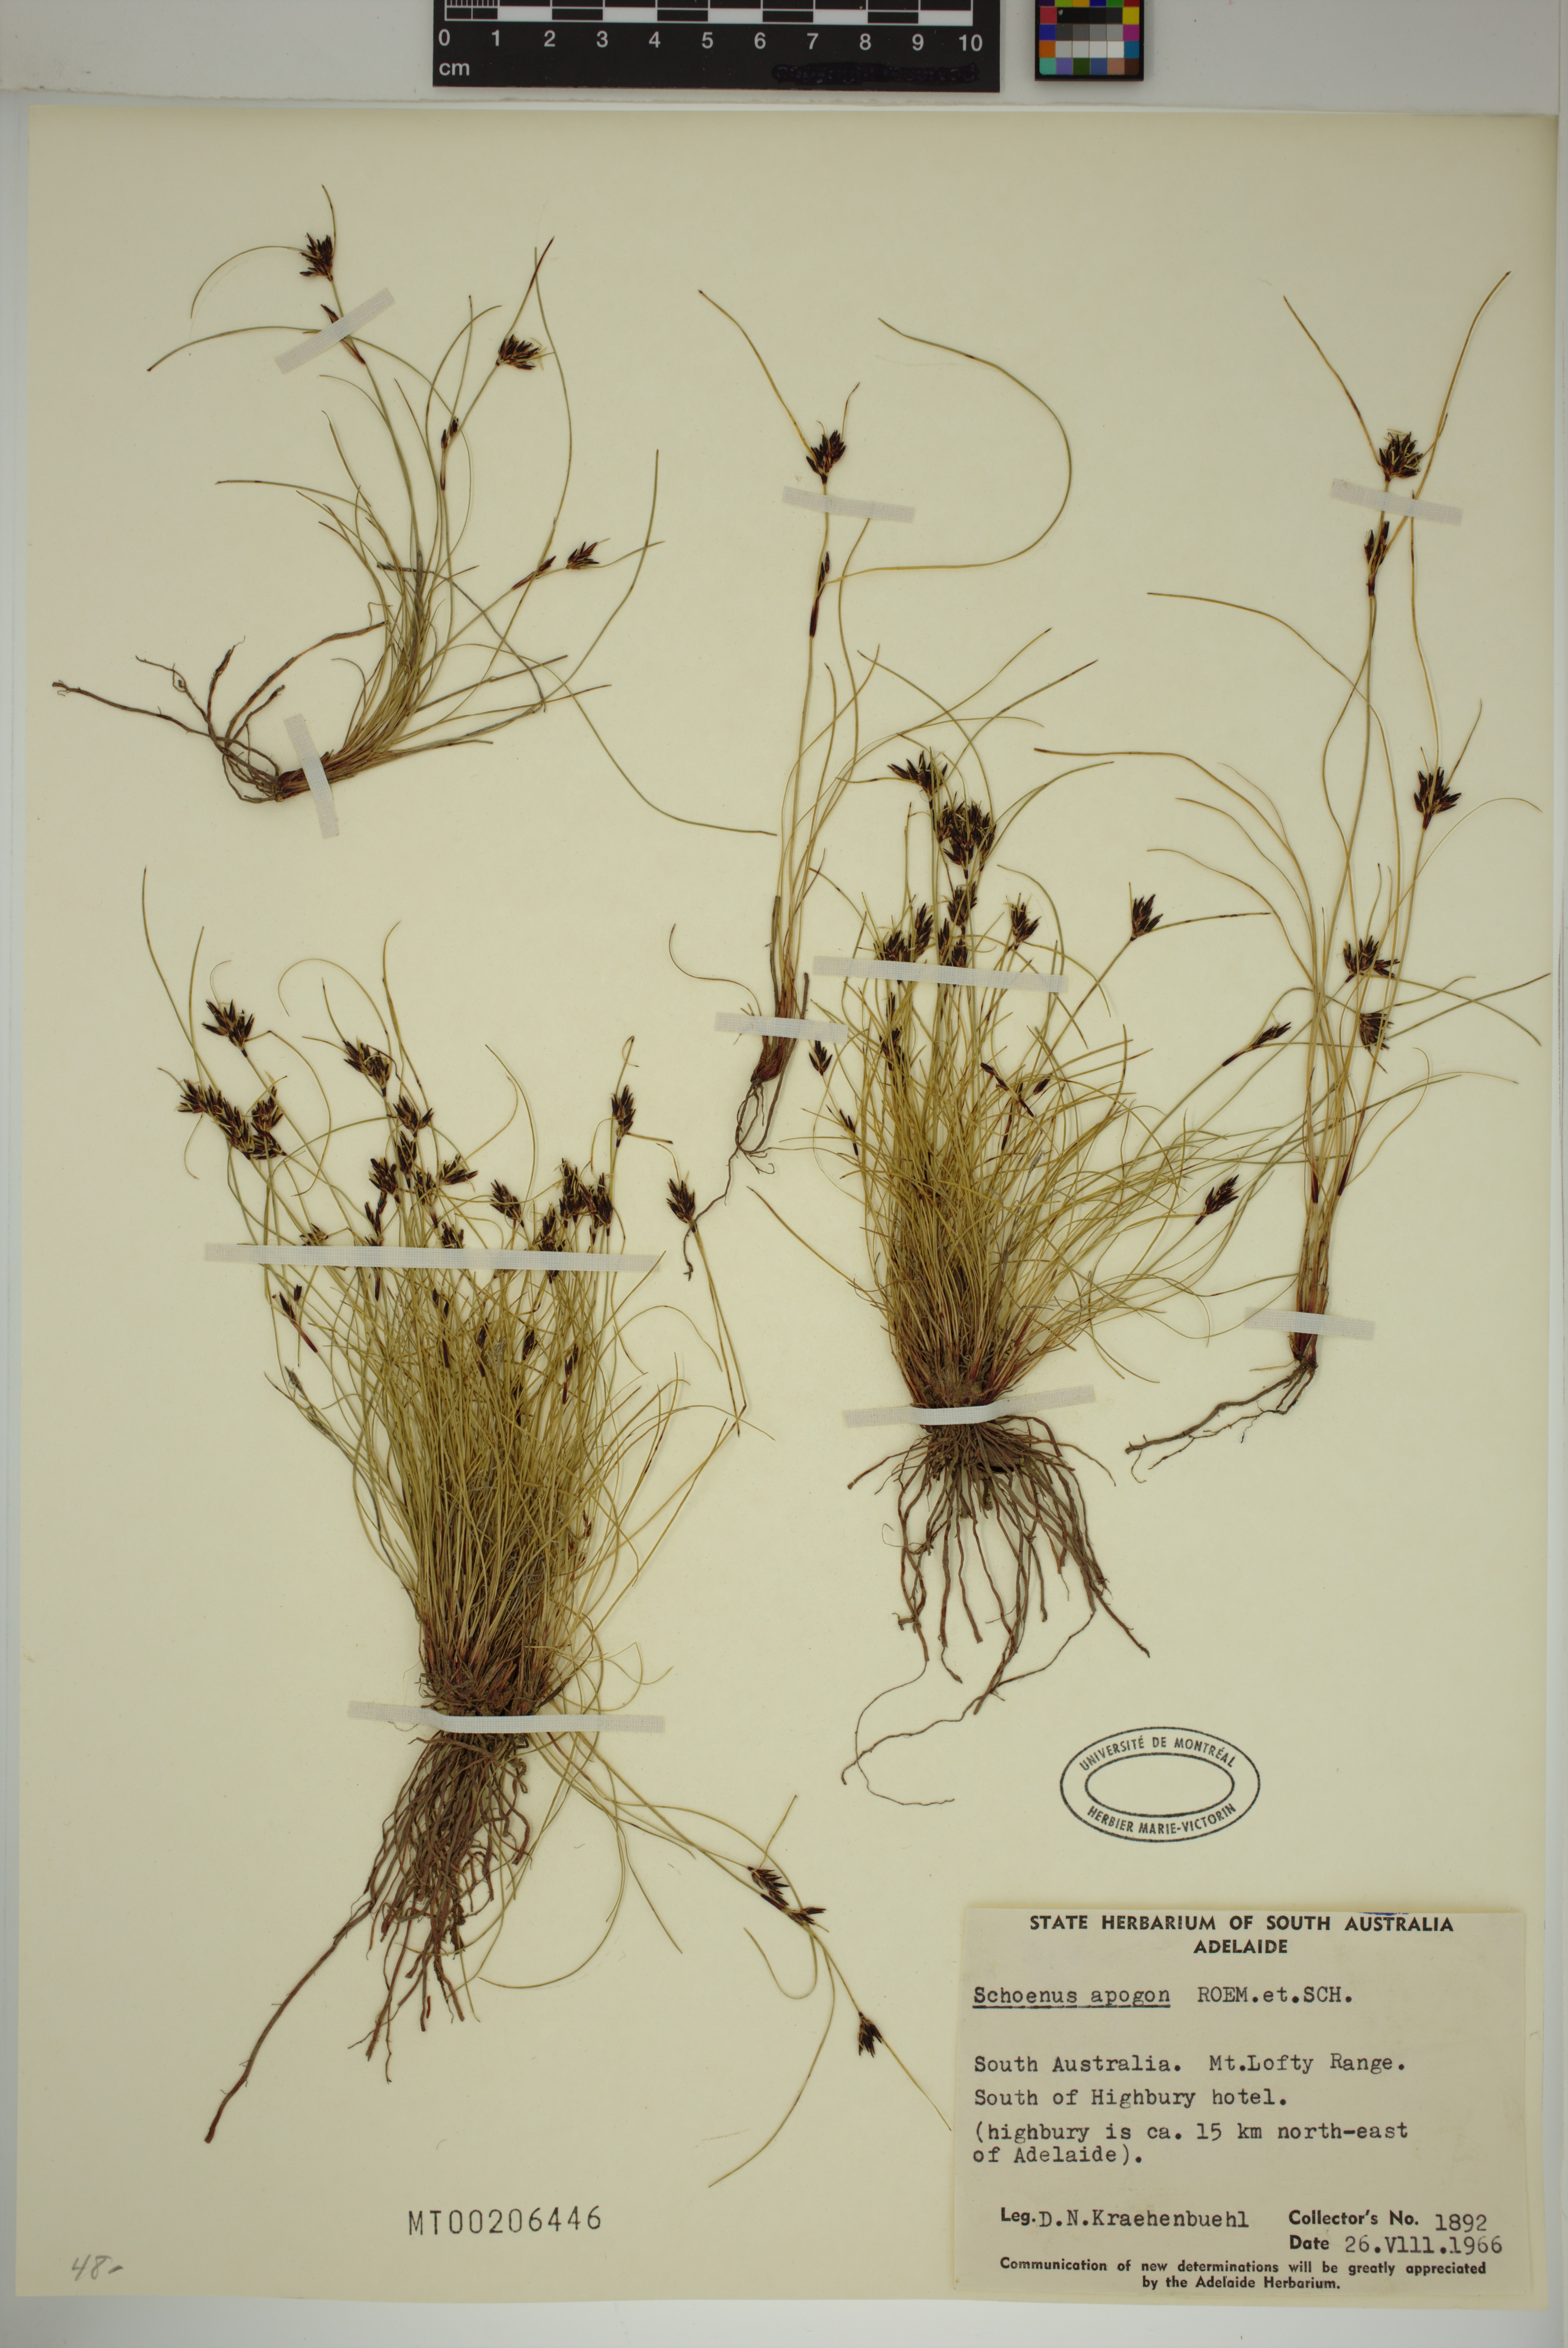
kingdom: Plantae
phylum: Tracheophyta
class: Liliopsida
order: Poales
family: Cyperaceae
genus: Schoenus
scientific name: Schoenus apogon
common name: Smooth bogrush
